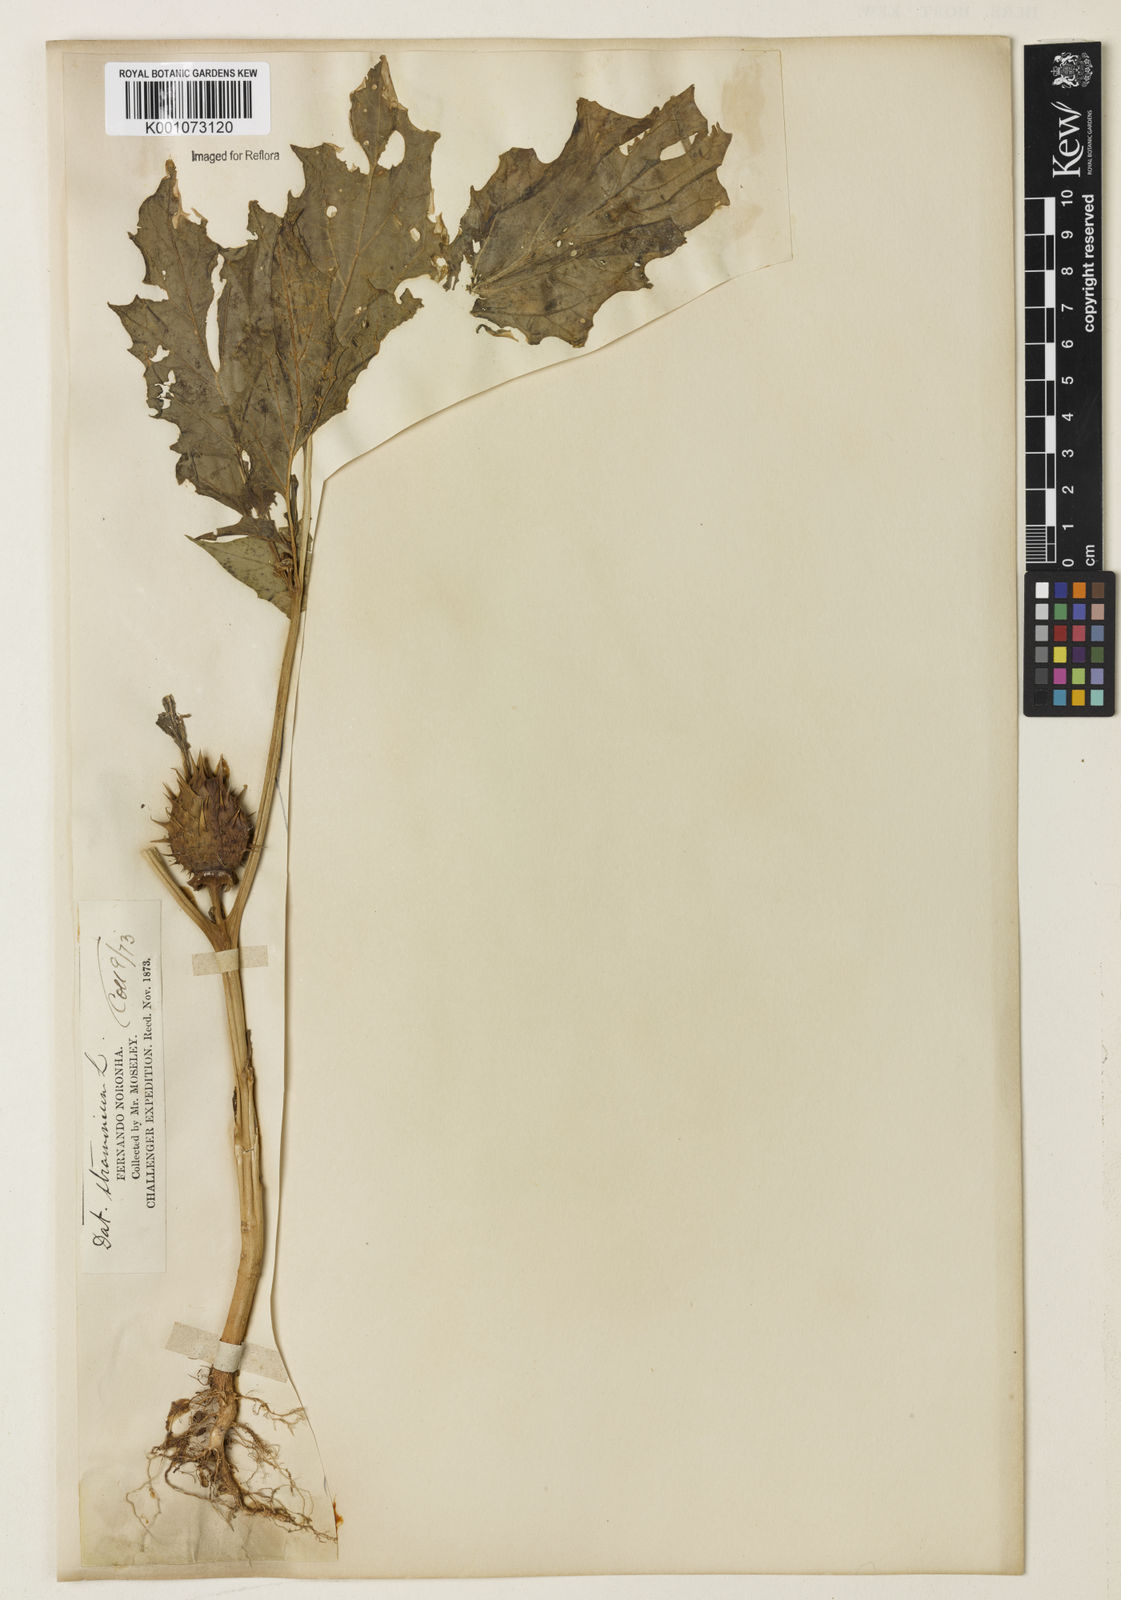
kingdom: Plantae
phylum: Tracheophyta
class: Magnoliopsida
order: Solanales
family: Solanaceae
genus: Datura
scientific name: Datura stramonium
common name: Thorn-apple
